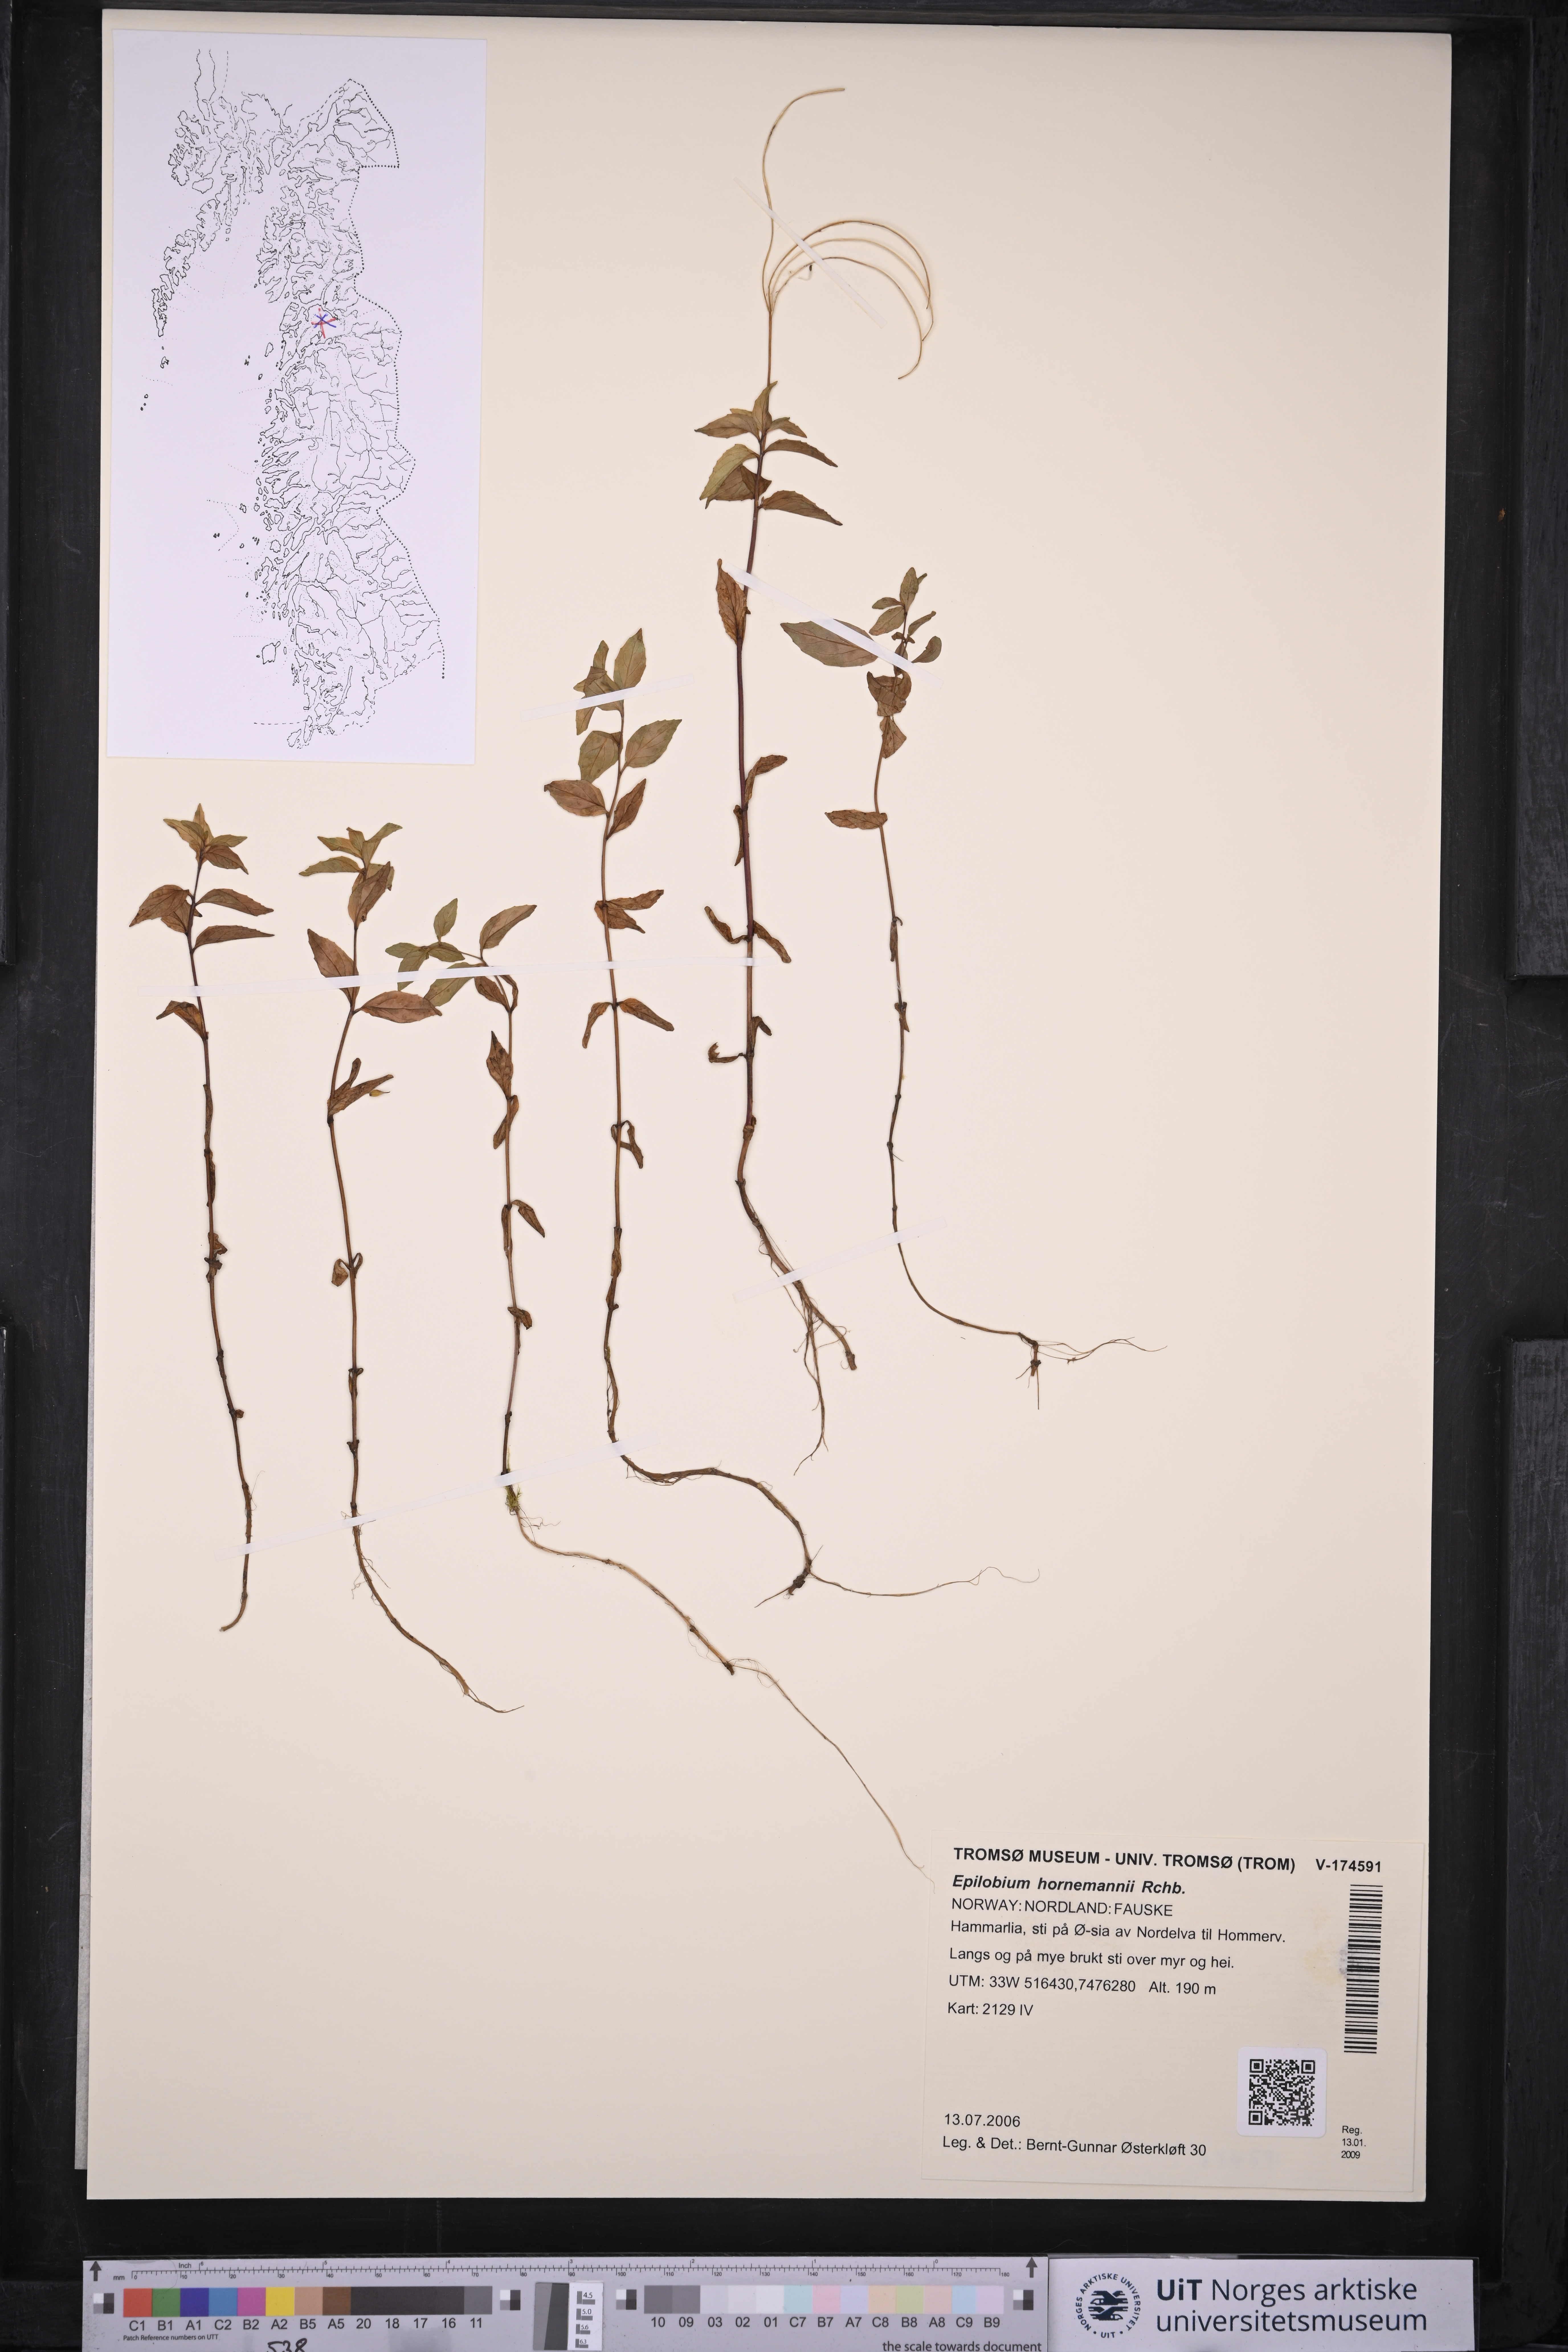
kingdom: Plantae
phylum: Tracheophyta
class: Magnoliopsida
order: Myrtales
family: Onagraceae
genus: Epilobium
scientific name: Epilobium hornemannii
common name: Hornemann's willowherb
